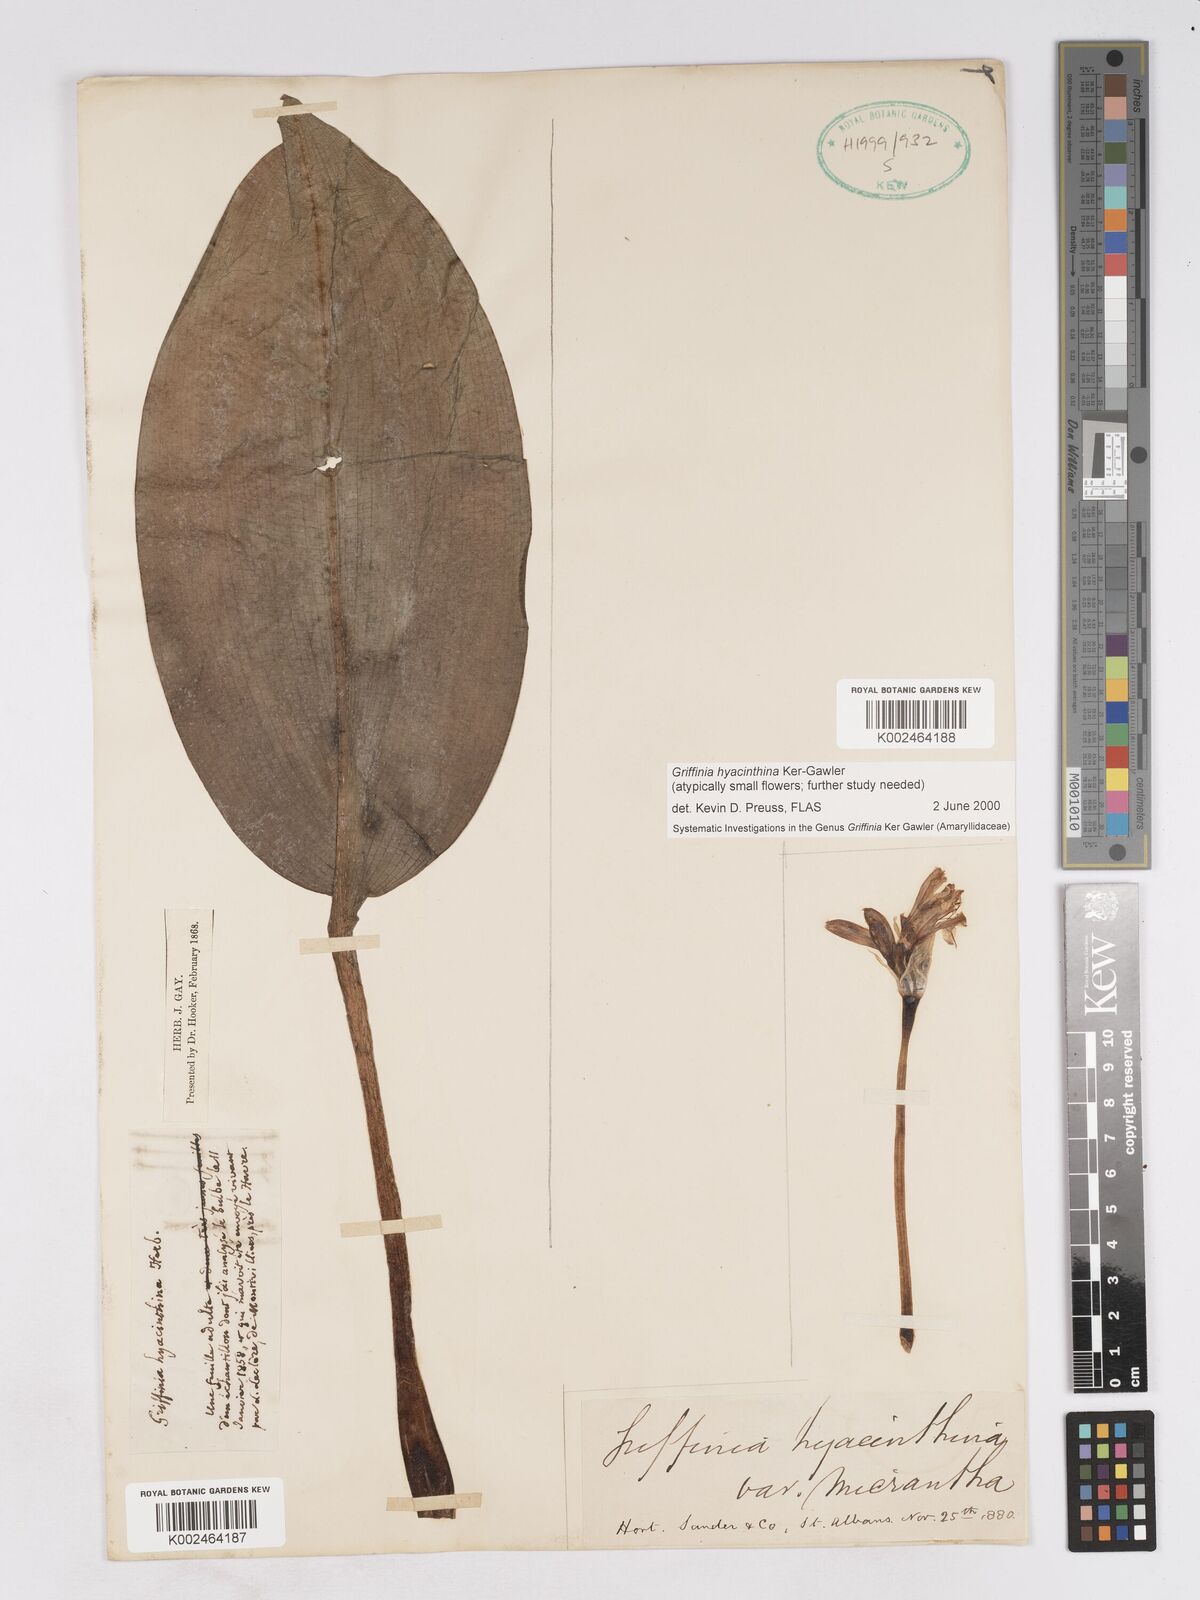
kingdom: Plantae
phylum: Tracheophyta
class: Liliopsida
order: Asparagales
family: Amaryllidaceae
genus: Griffinia
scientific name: Griffinia hyacinthina
